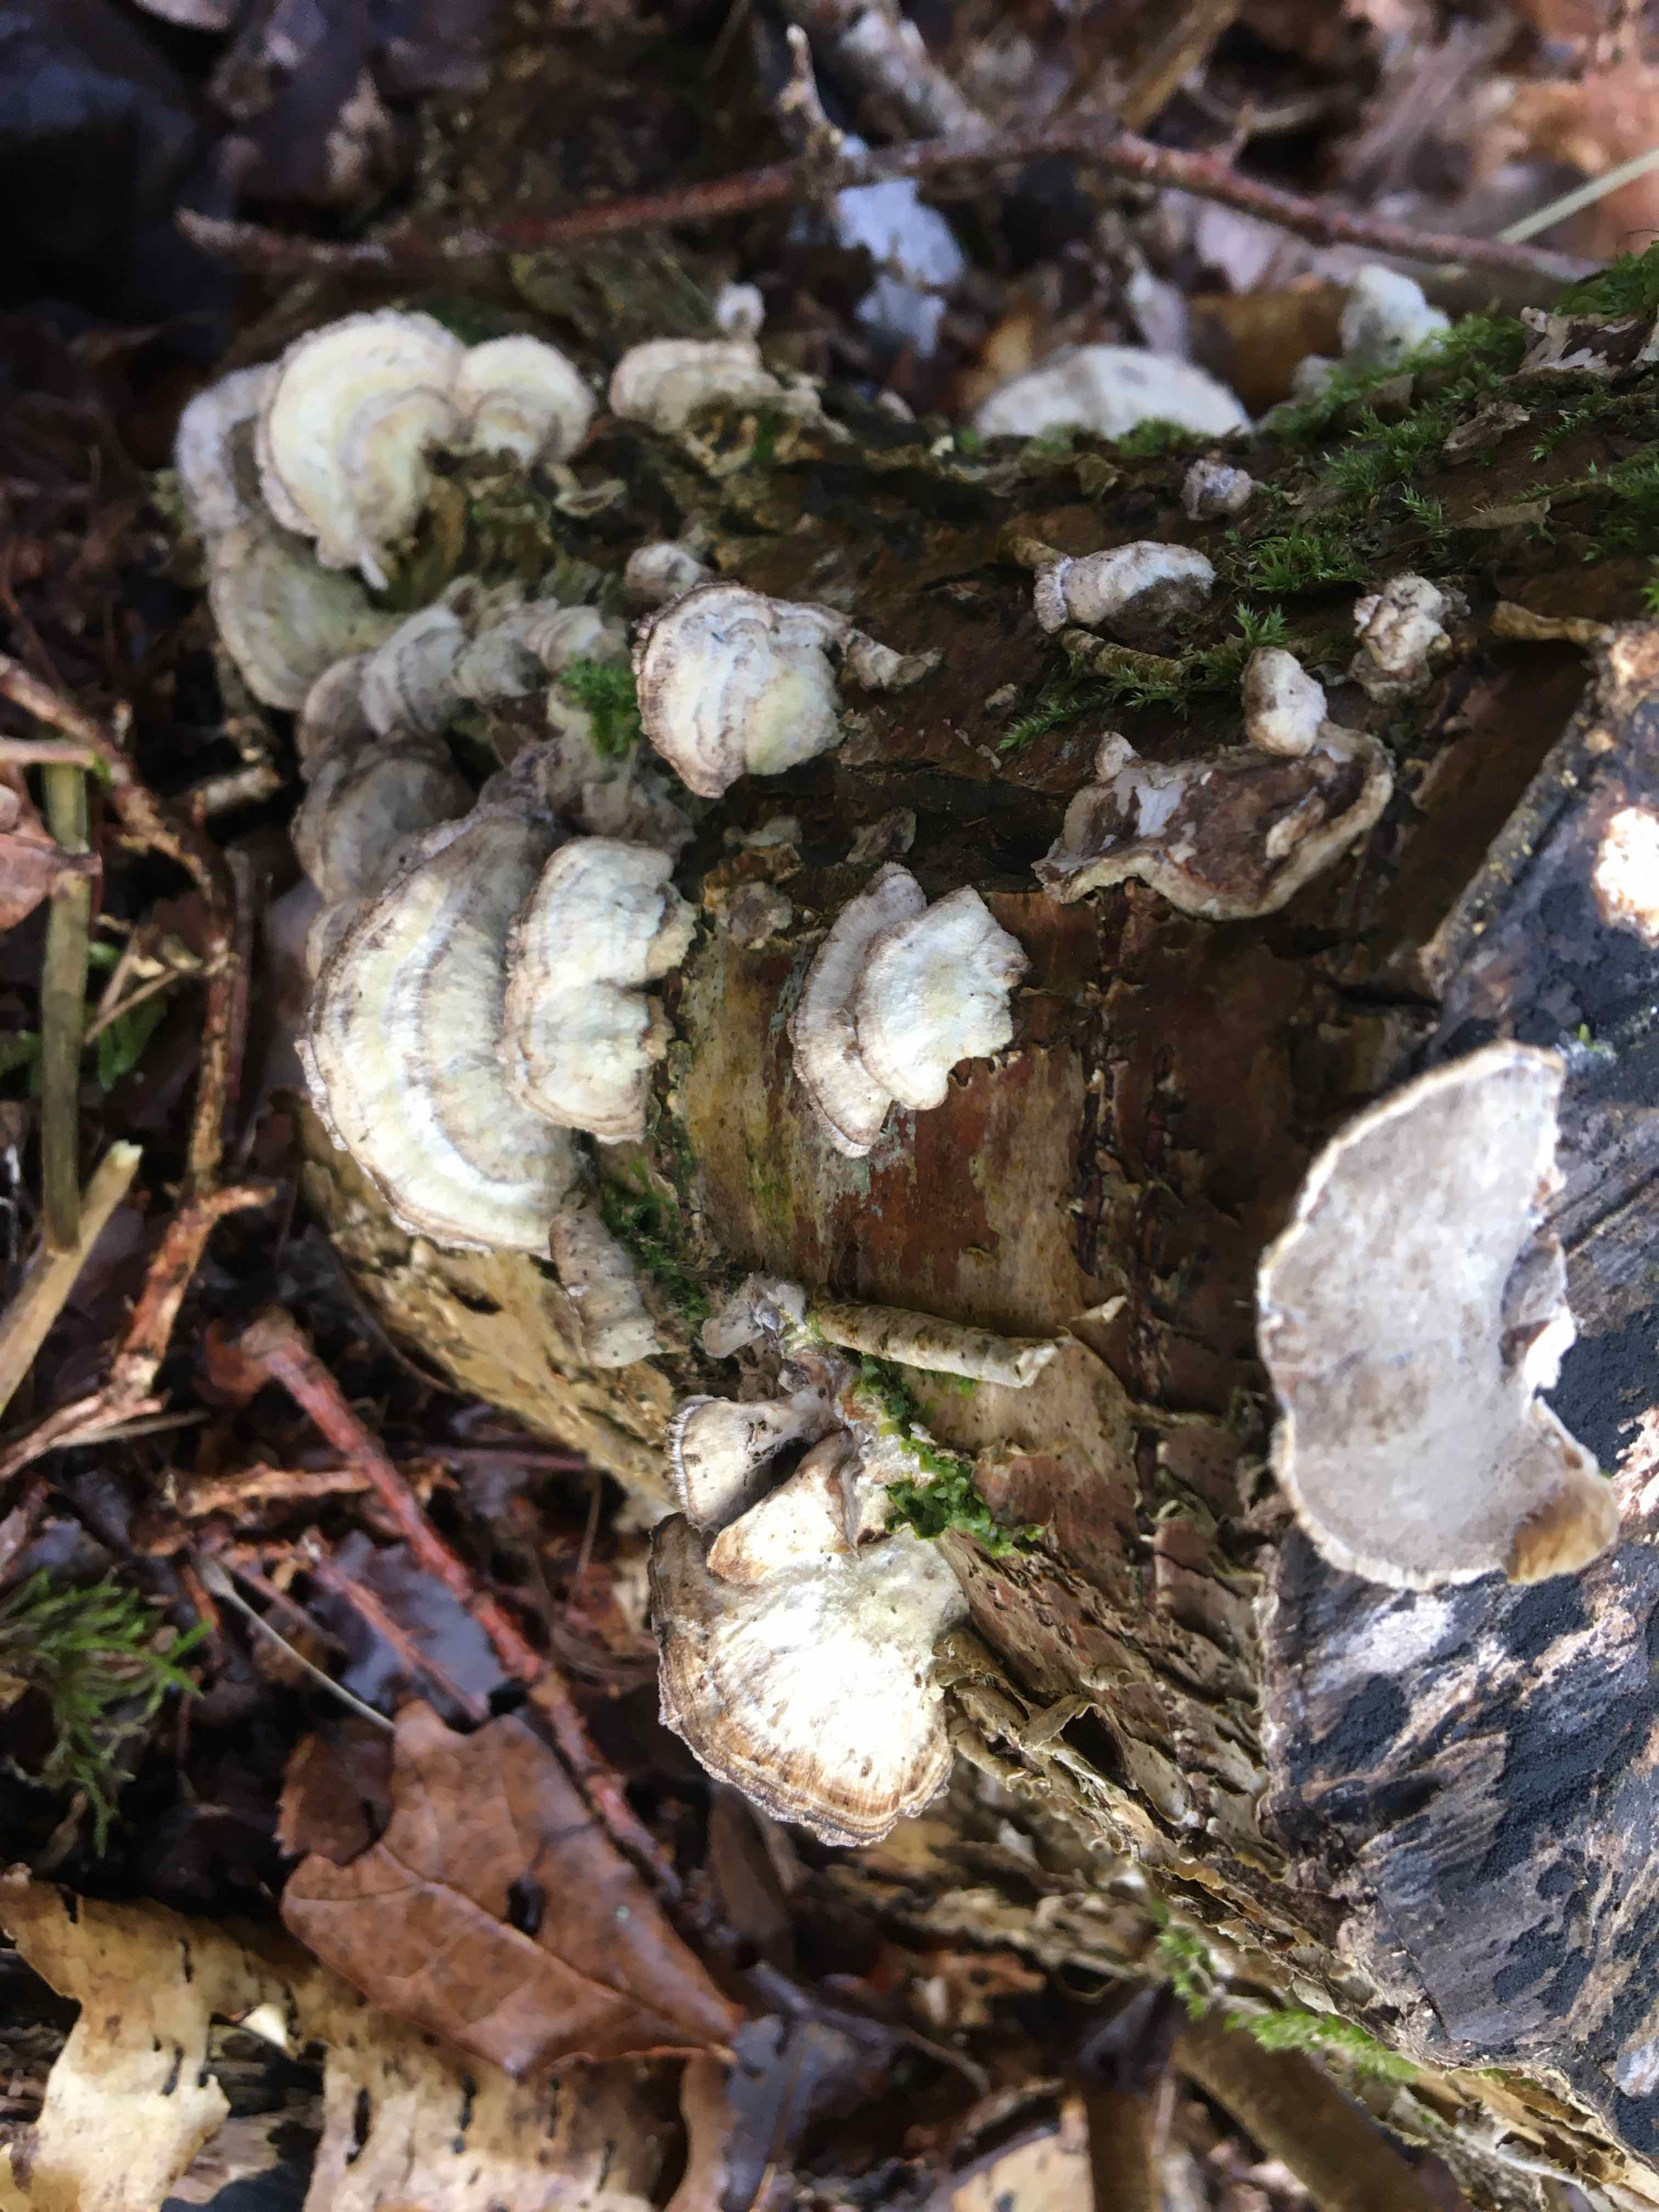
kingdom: Fungi
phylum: Basidiomycota
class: Agaricomycetes
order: Polyporales
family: Phanerochaetaceae
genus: Bjerkandera
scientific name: Bjerkandera adusta
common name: sveden sodporesvamp
